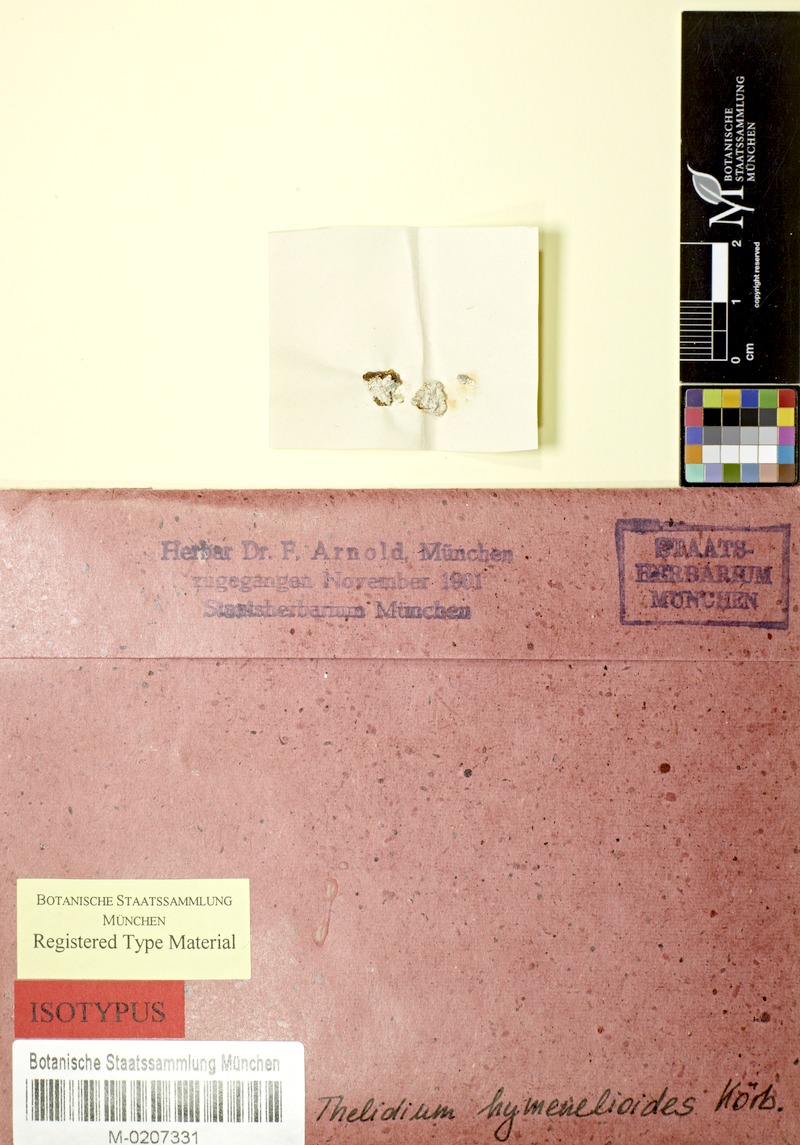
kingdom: Fungi
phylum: Ascomycota
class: Eurotiomycetes
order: Verrucariales
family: Verrucariaceae
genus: Thelidium
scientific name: Thelidium decipiens
